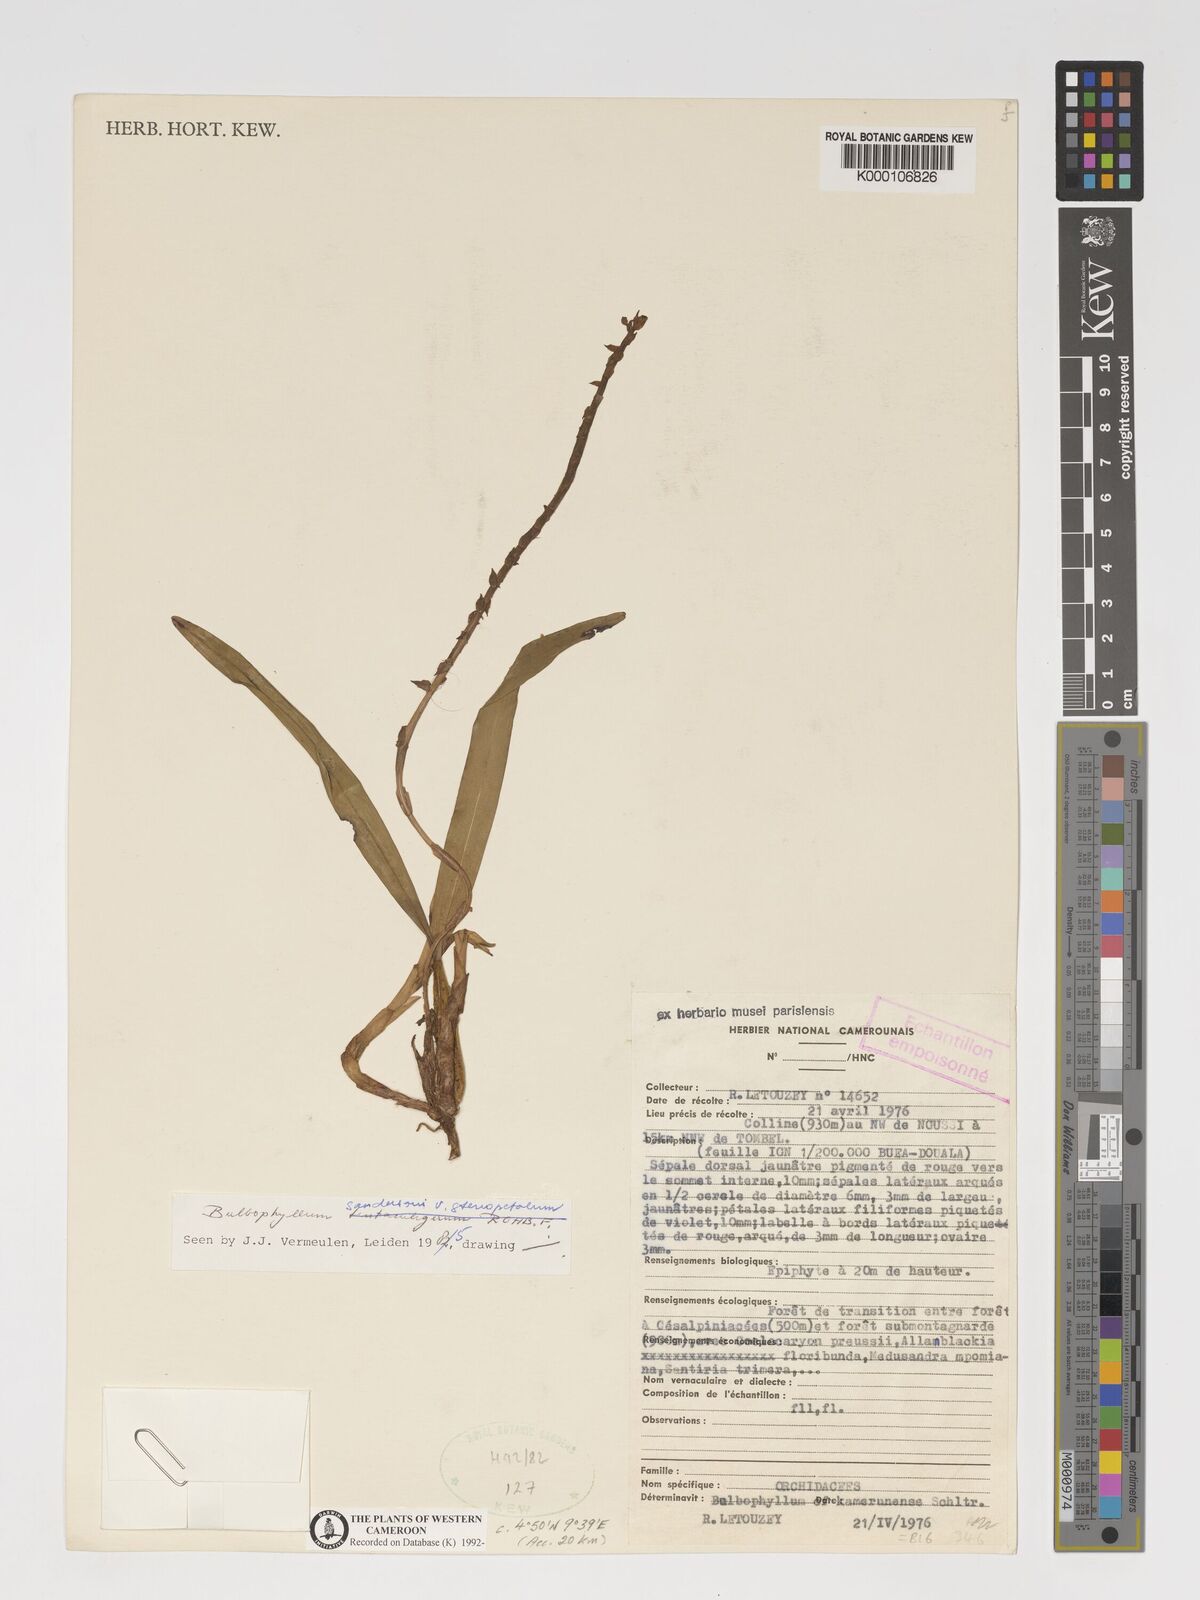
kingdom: Plantae
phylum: Tracheophyta
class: Liliopsida
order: Asparagales
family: Orchidaceae
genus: Bulbophyllum
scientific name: Bulbophyllum sandersonii
